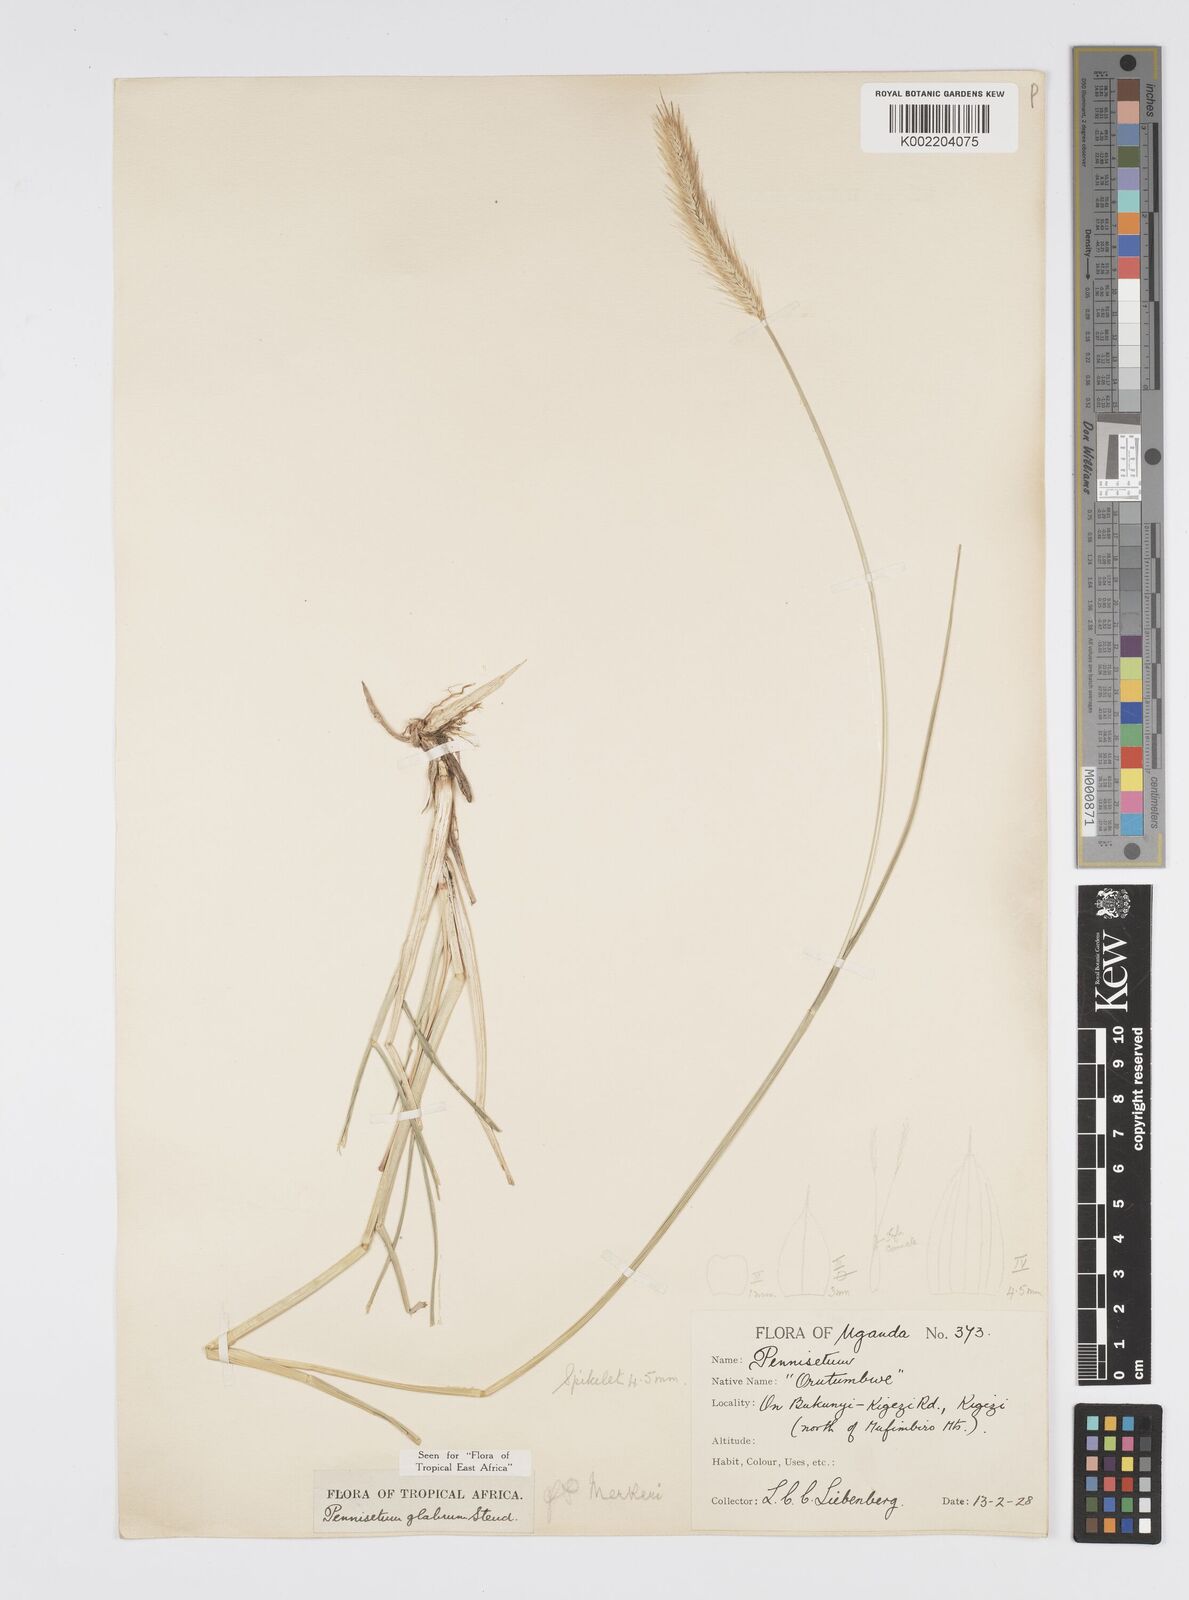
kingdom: Plantae
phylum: Tracheophyta
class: Liliopsida
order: Poales
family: Poaceae
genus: Cenchrus
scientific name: Cenchrus geniculatus
